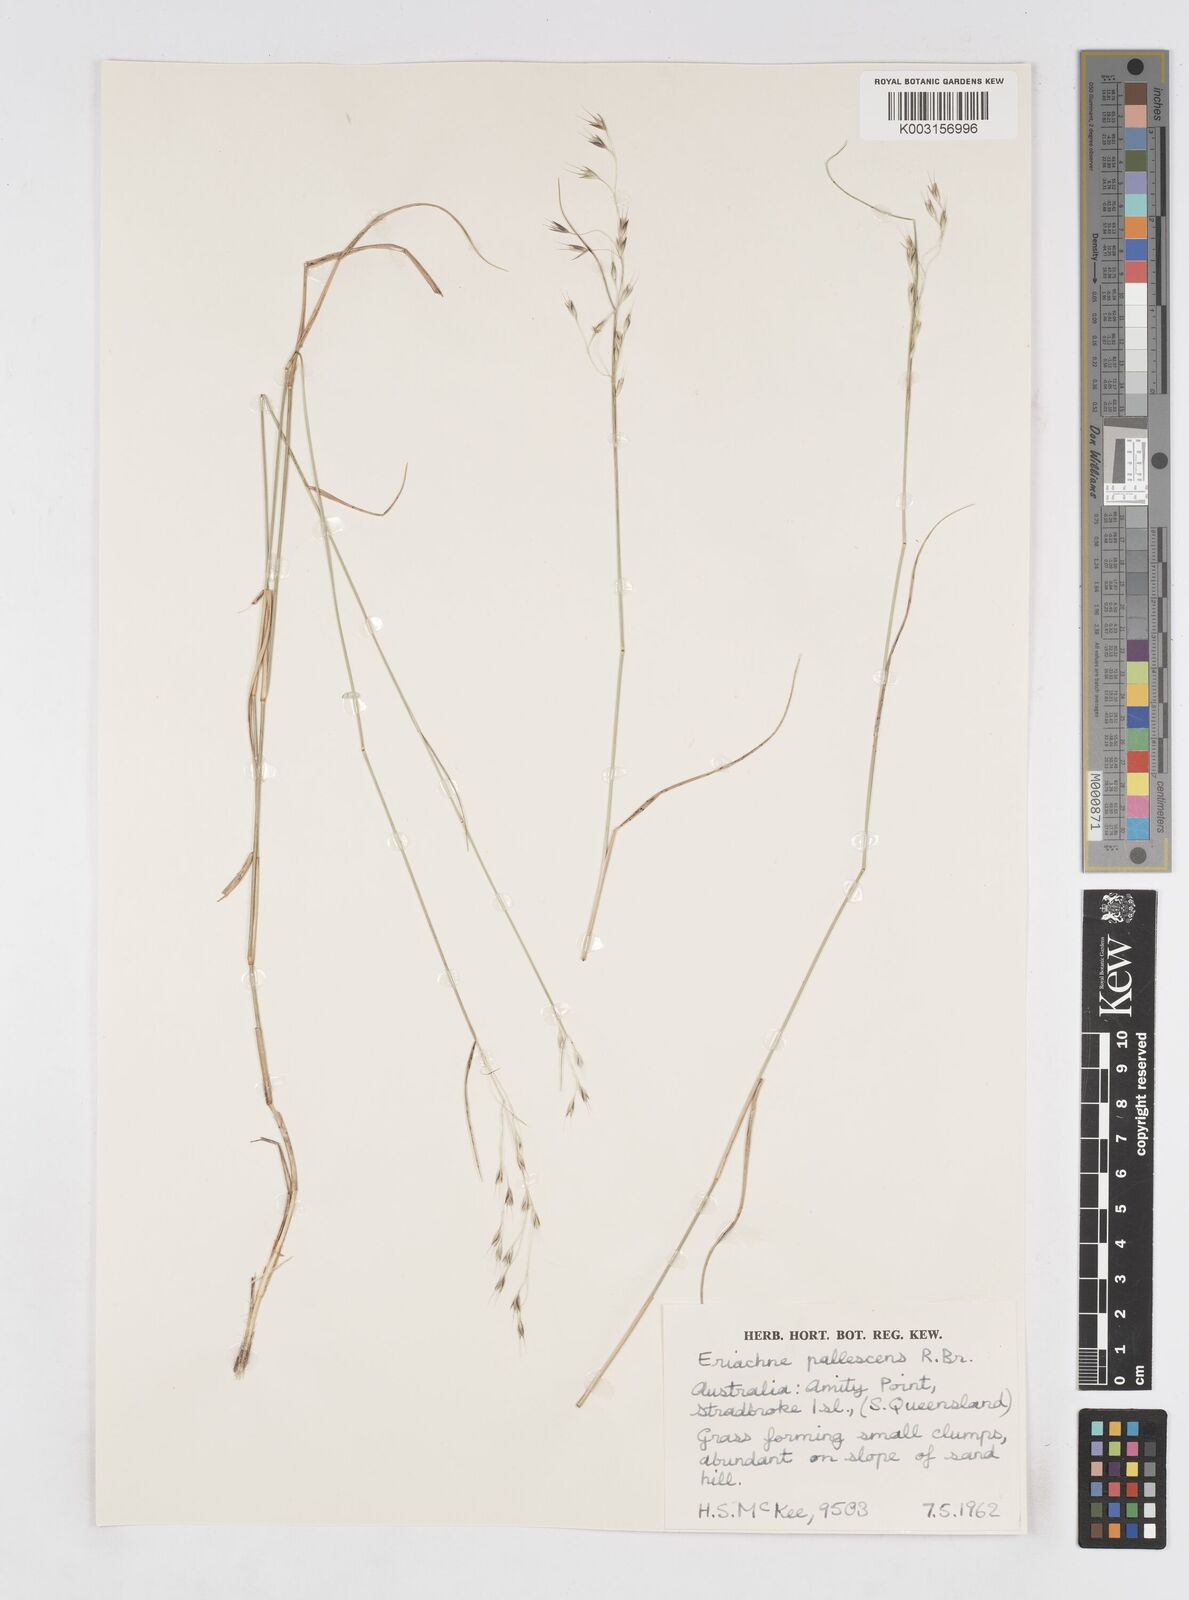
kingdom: Plantae
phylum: Tracheophyta
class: Liliopsida
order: Poales
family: Poaceae
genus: Eriachne
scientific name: Eriachne pallescens
